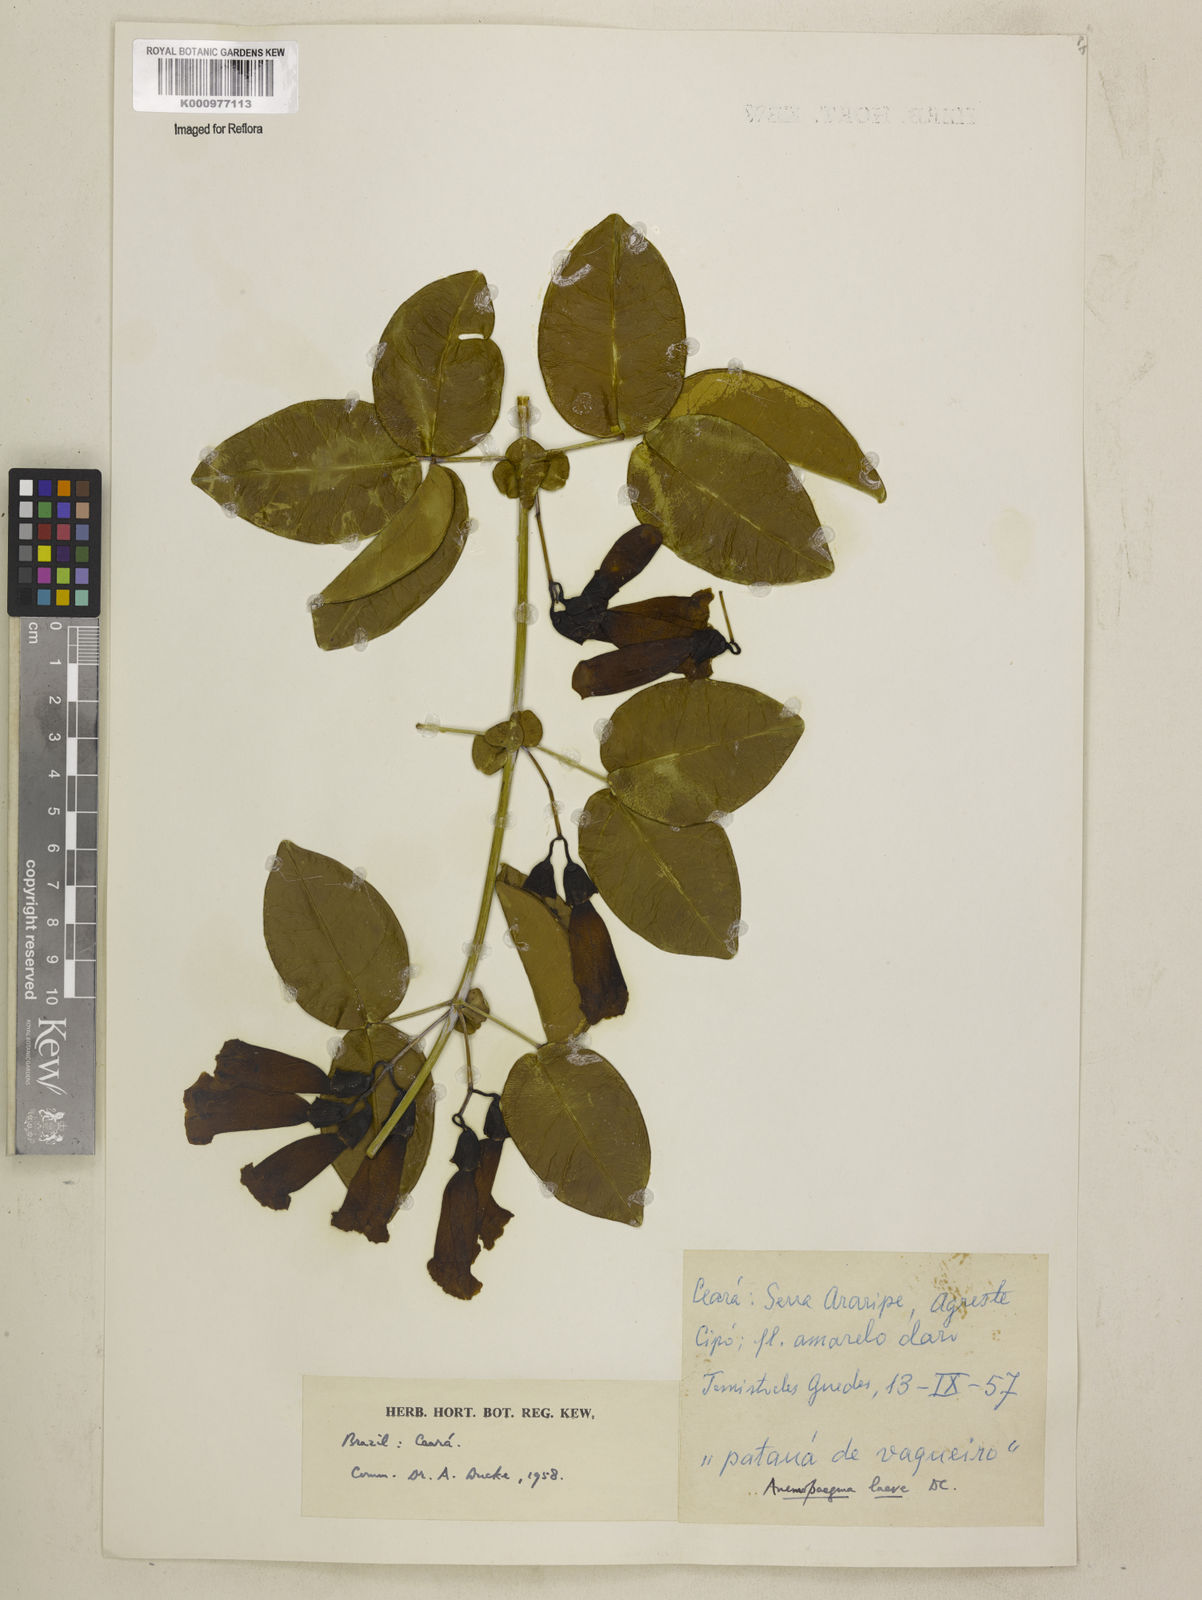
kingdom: Plantae
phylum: Tracheophyta
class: Magnoliopsida
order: Lamiales
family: Bignoniaceae
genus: Anemopaegma
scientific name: Anemopaegma laeve
